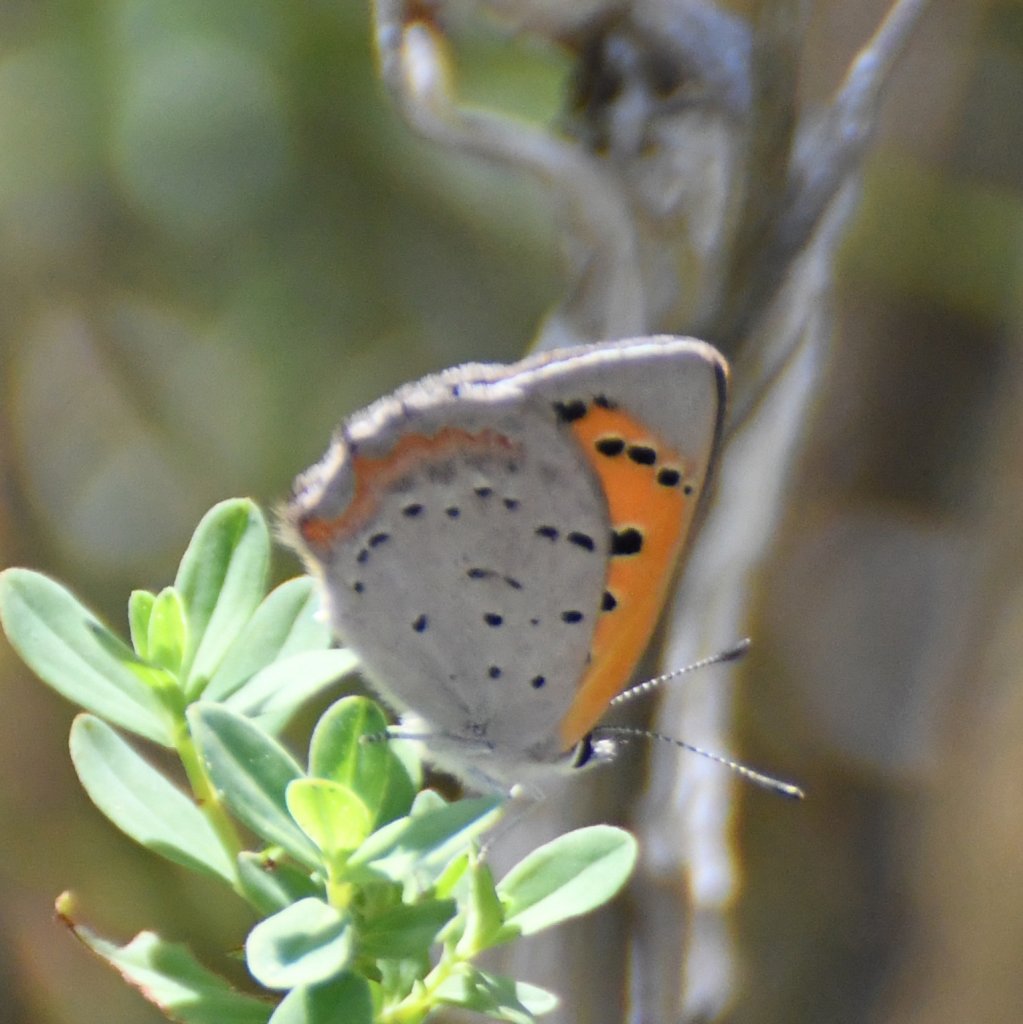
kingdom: Animalia
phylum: Arthropoda
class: Insecta
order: Lepidoptera
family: Lycaenidae
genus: Lycaena
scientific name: Lycaena phlaeas
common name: American Copper
